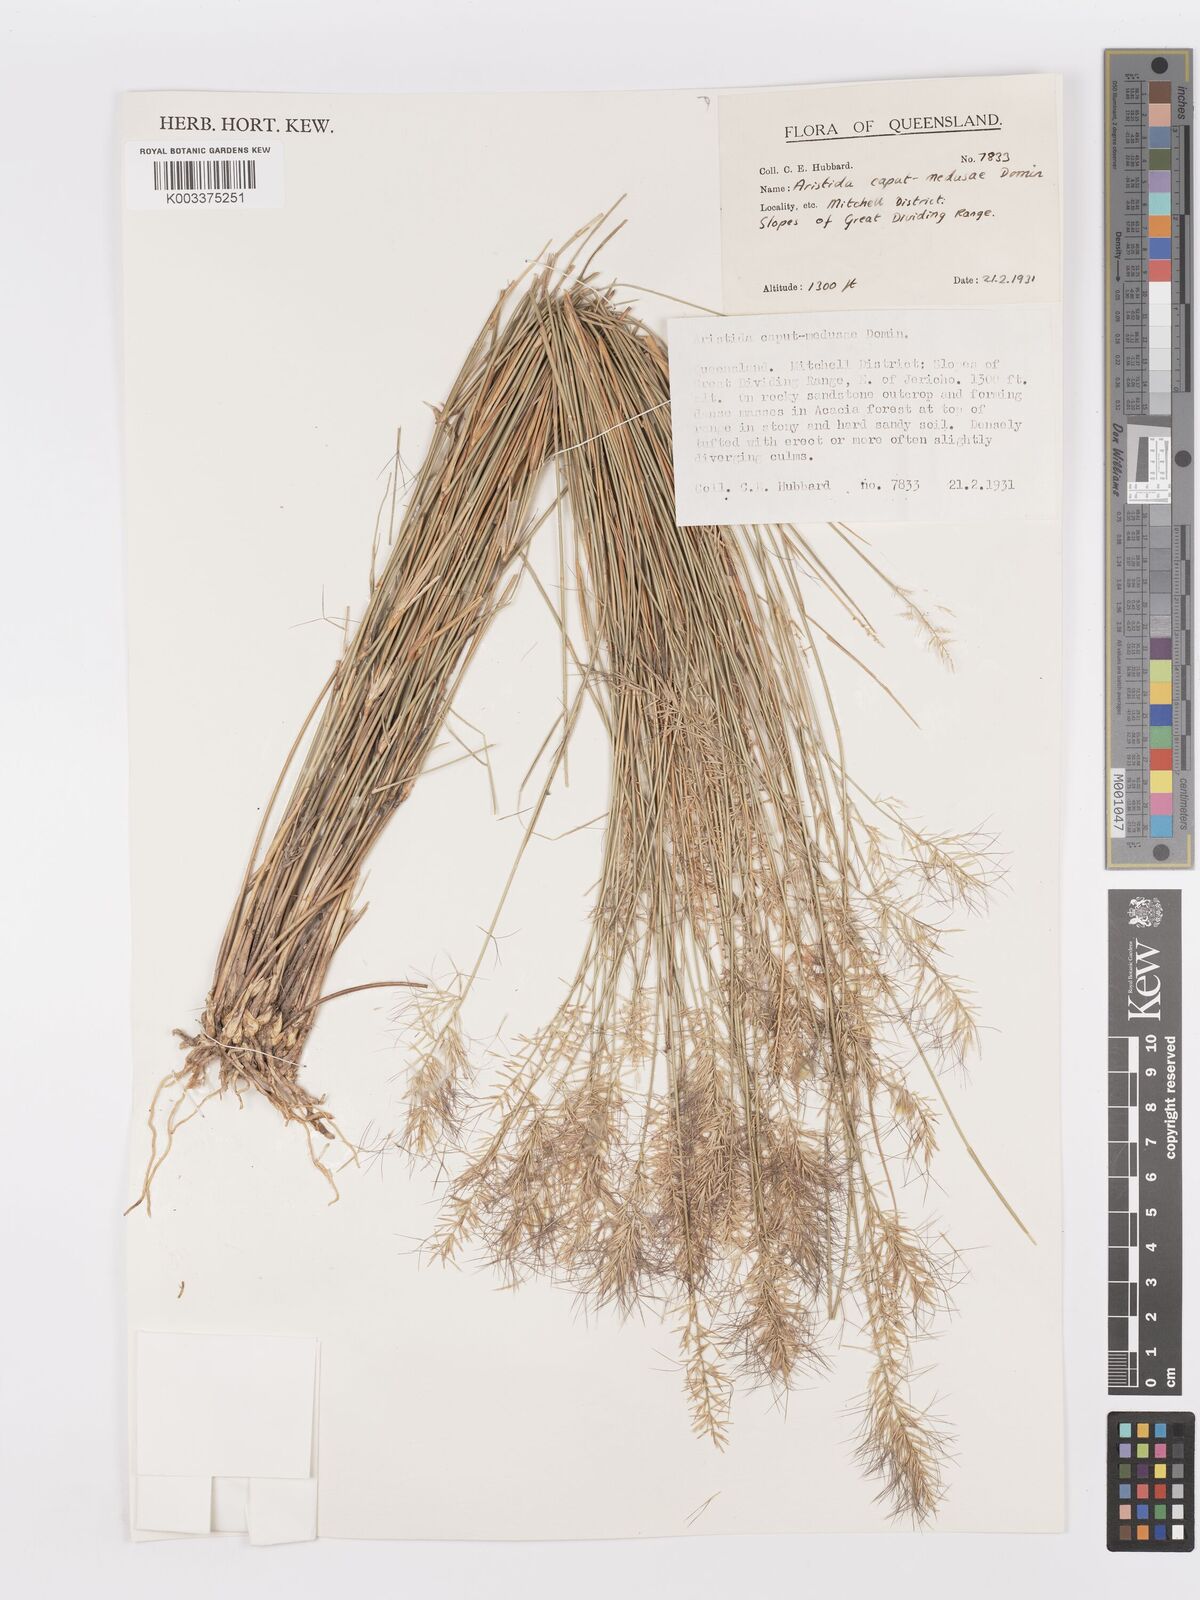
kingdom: Plantae
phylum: Tracheophyta
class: Liliopsida
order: Poales
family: Poaceae
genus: Aristida
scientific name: Aristida caput-medusae
